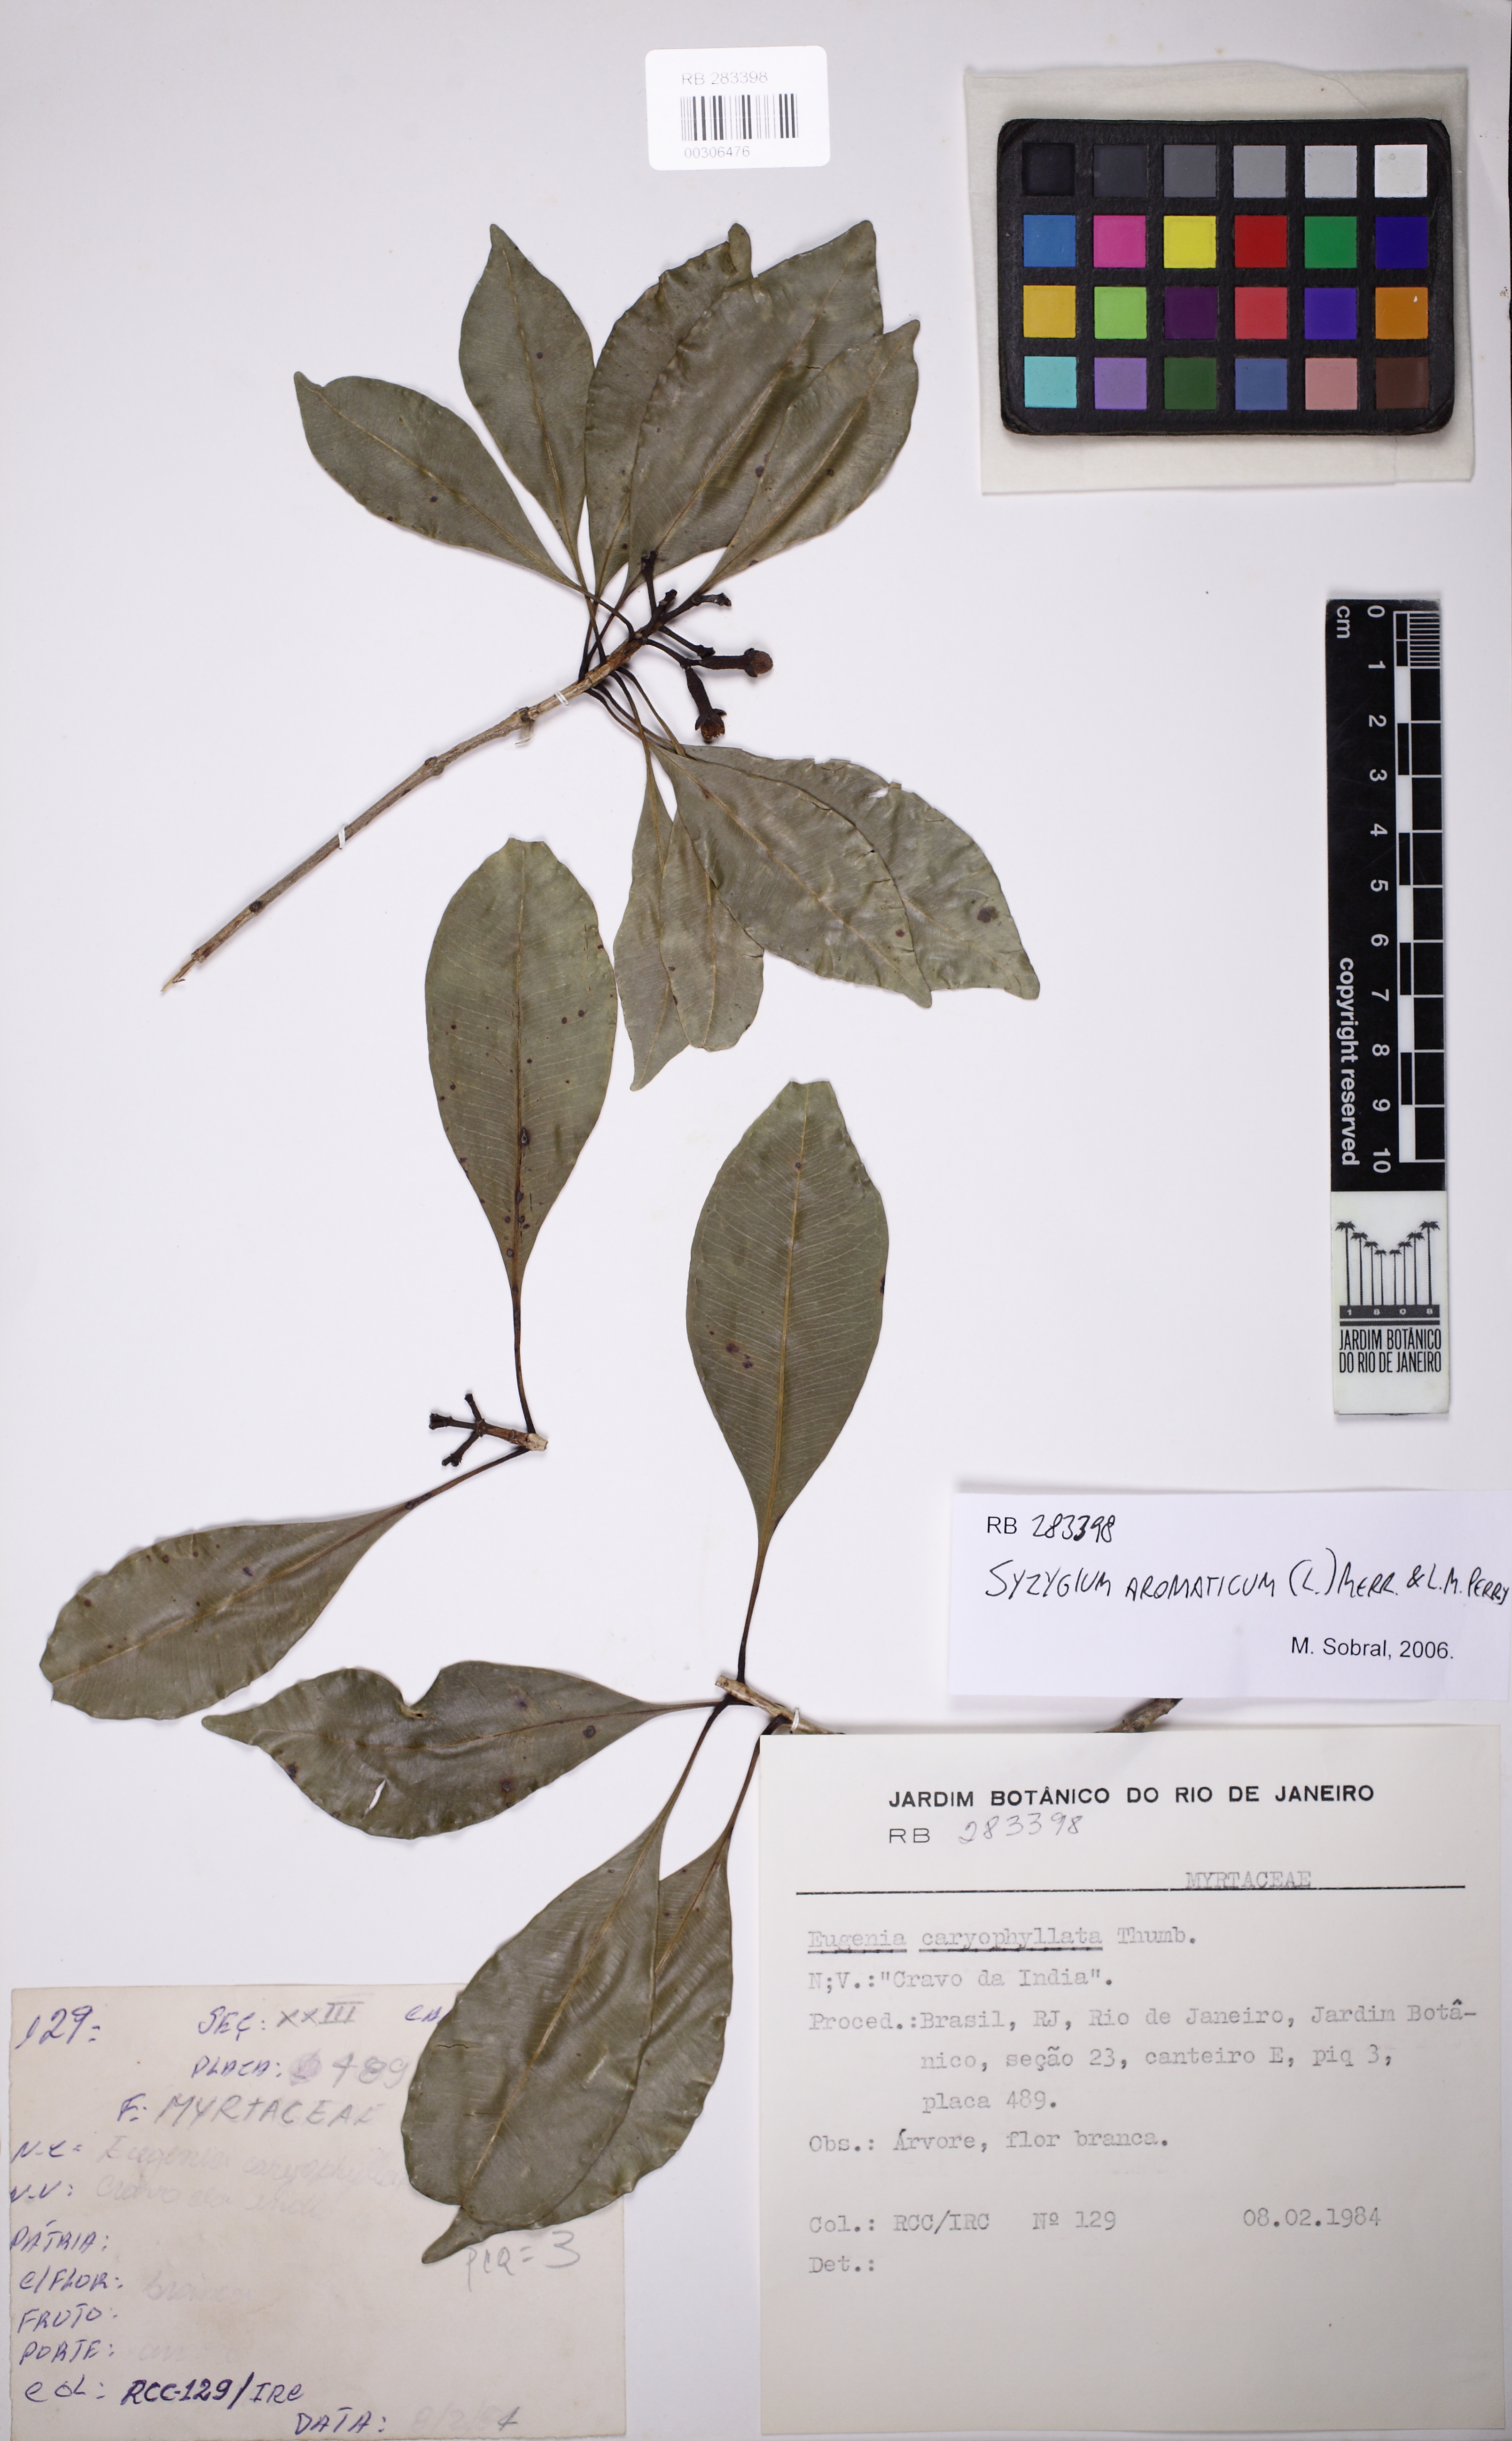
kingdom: Plantae
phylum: Tracheophyta
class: Magnoliopsida
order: Myrtales
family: Myrtaceae
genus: Syzygium
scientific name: Syzygium aromaticum
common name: Clove
